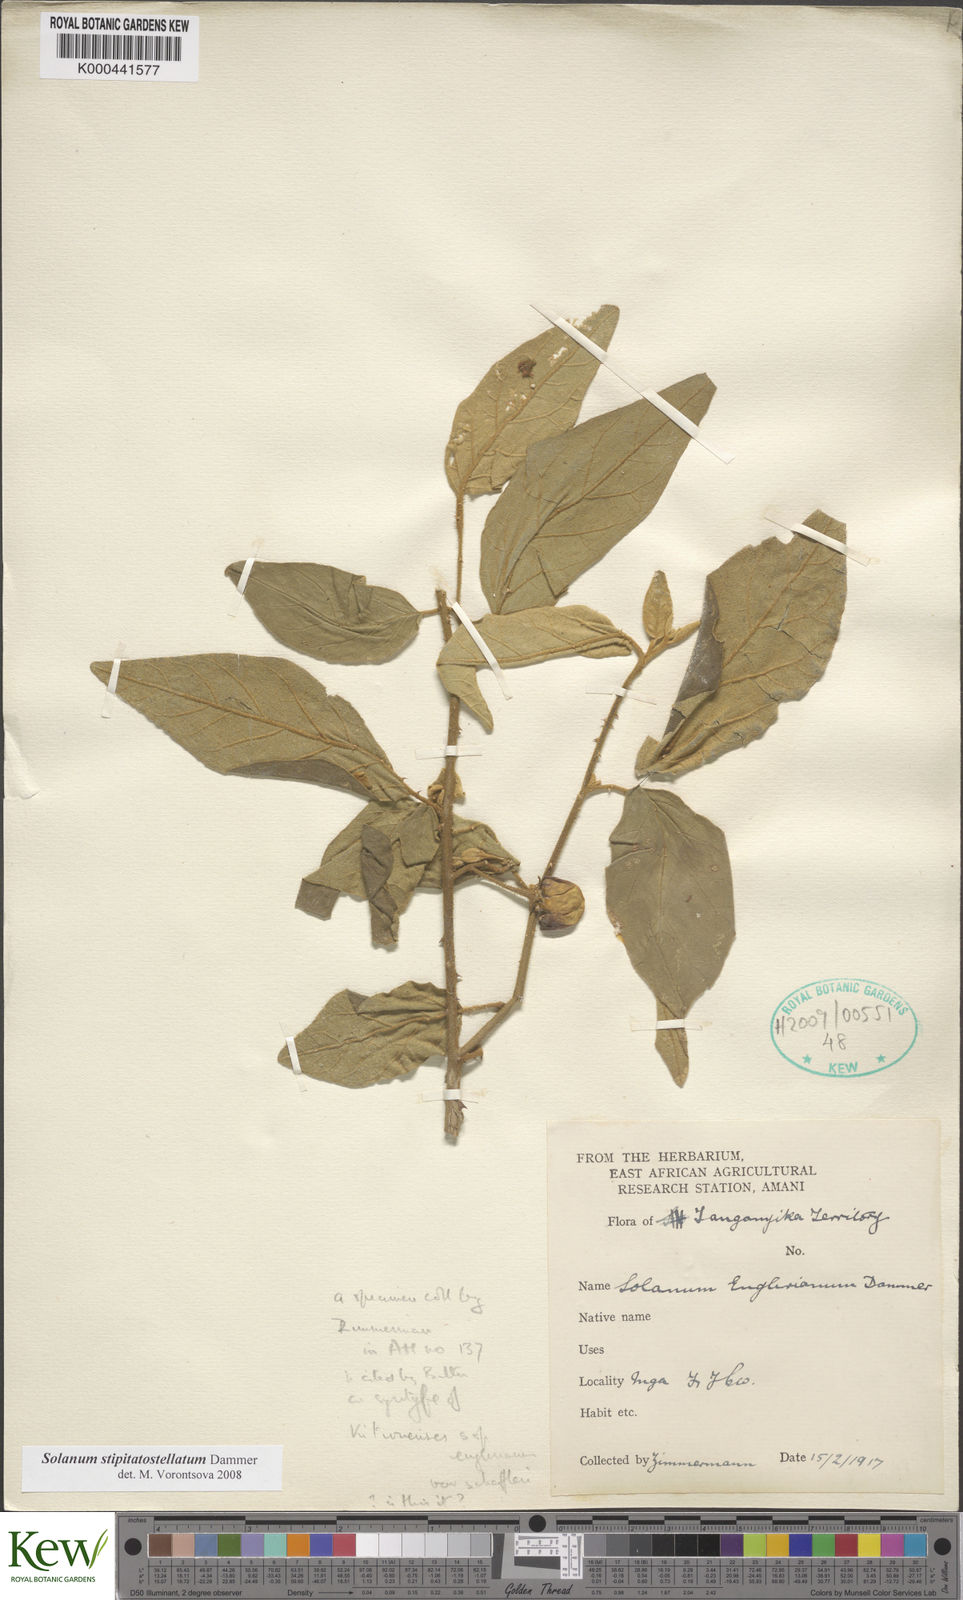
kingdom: Plantae
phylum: Tracheophyta
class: Magnoliopsida
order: Solanales
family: Solanaceae
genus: Solanum
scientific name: Solanum stipitatostellatum
